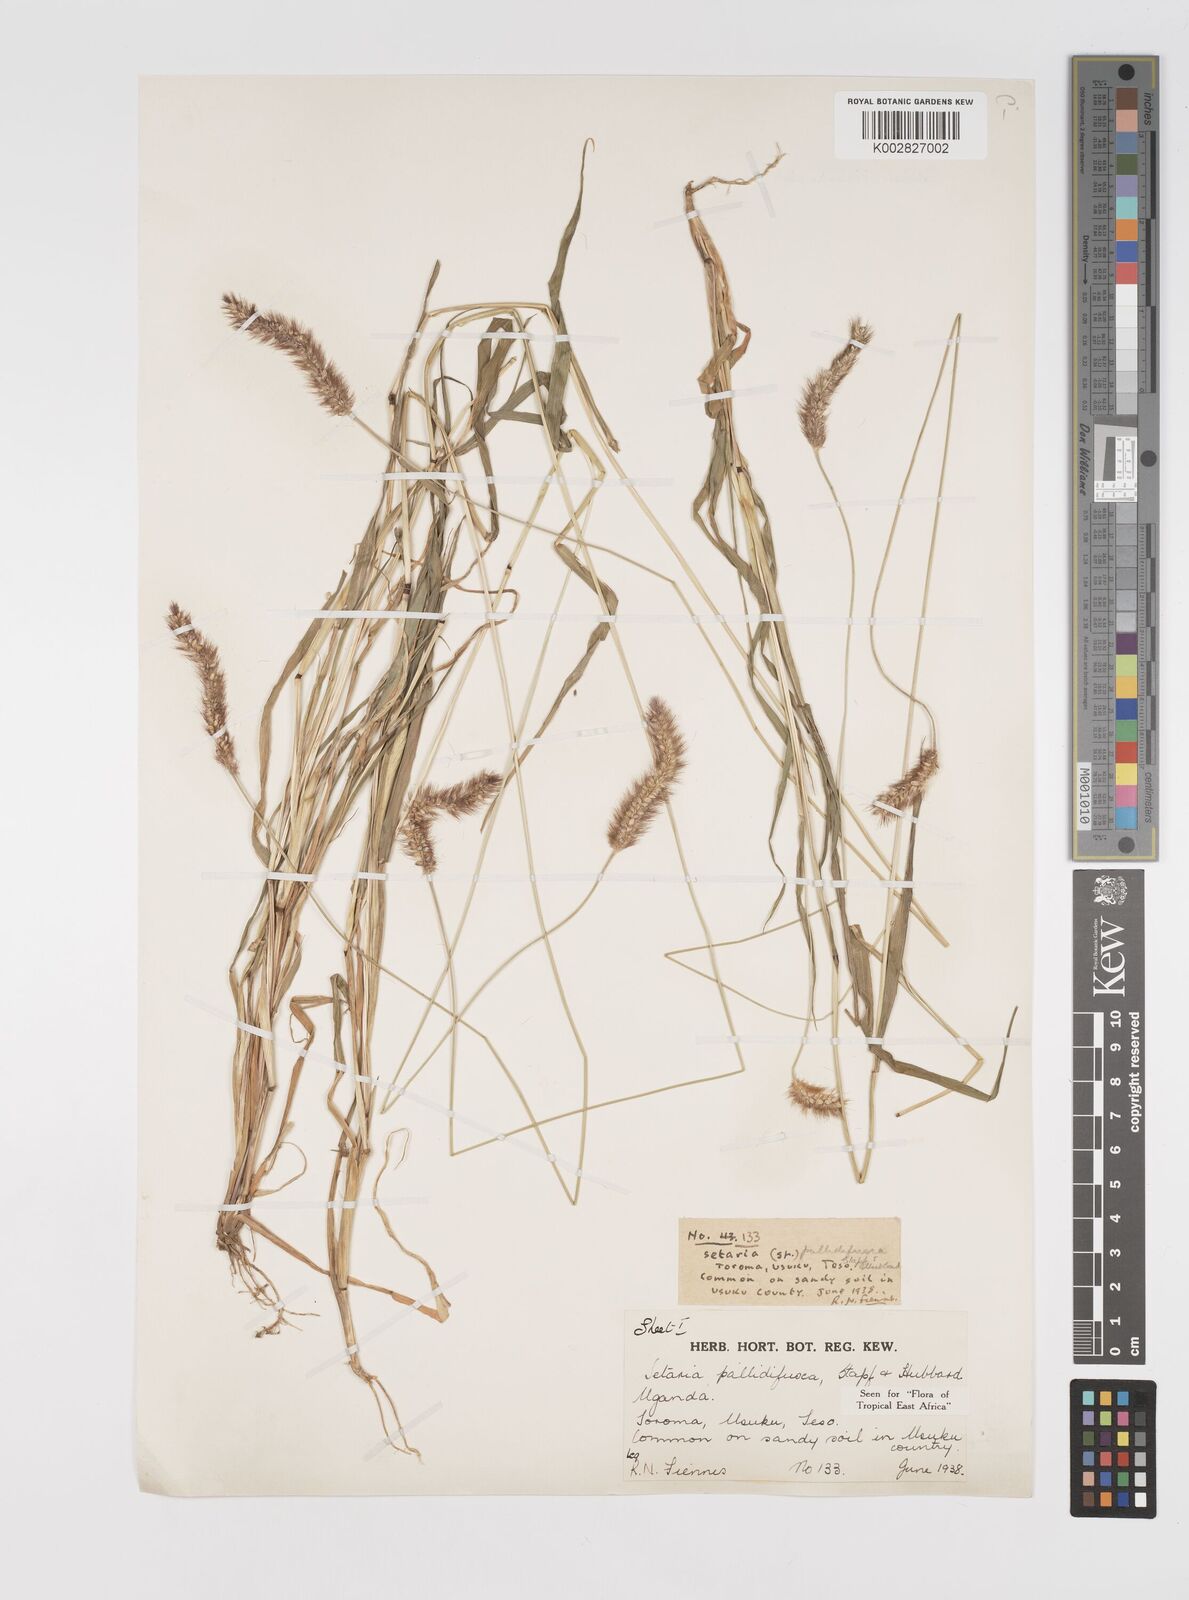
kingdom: Plantae
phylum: Tracheophyta
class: Liliopsida
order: Poales
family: Poaceae
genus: Setaria
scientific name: Setaria pumila
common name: Yellow bristle-grass
